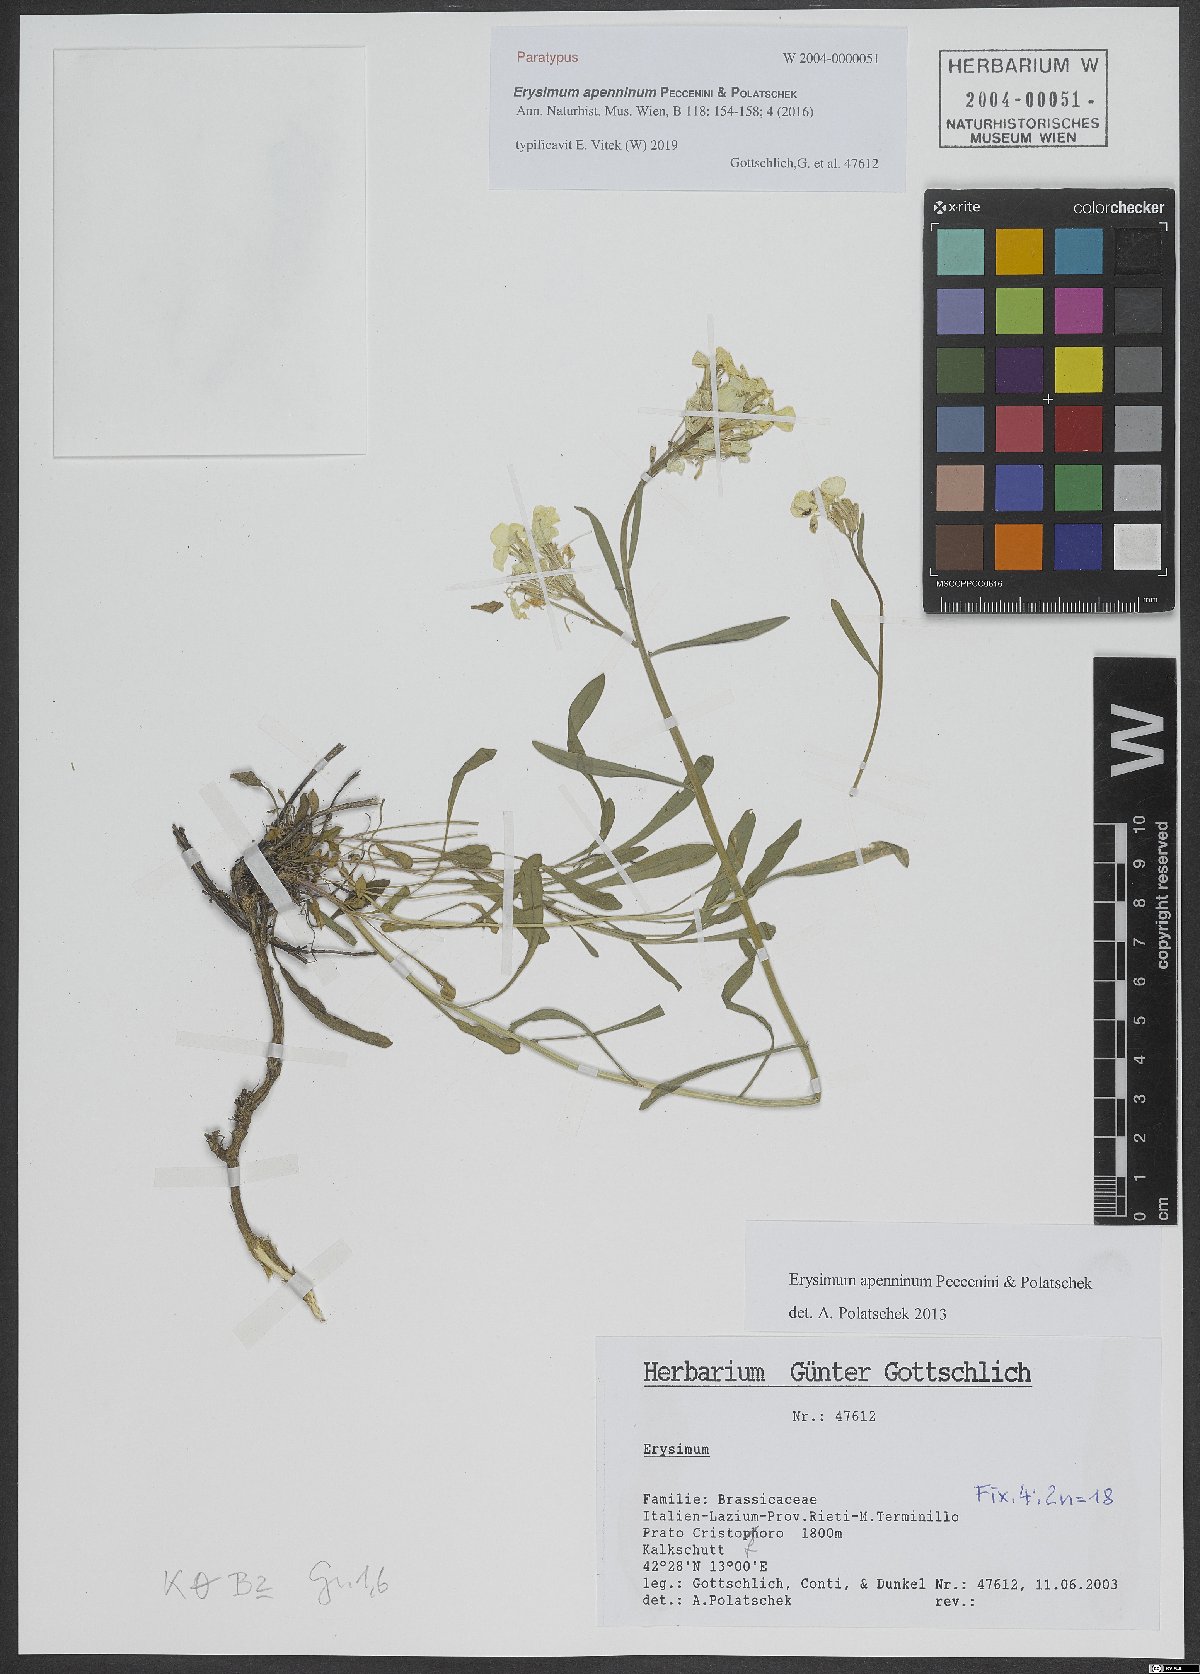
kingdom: Plantae
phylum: Tracheophyta
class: Magnoliopsida
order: Brassicales
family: Brassicaceae
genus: Erysimum
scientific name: Erysimum apenninum
